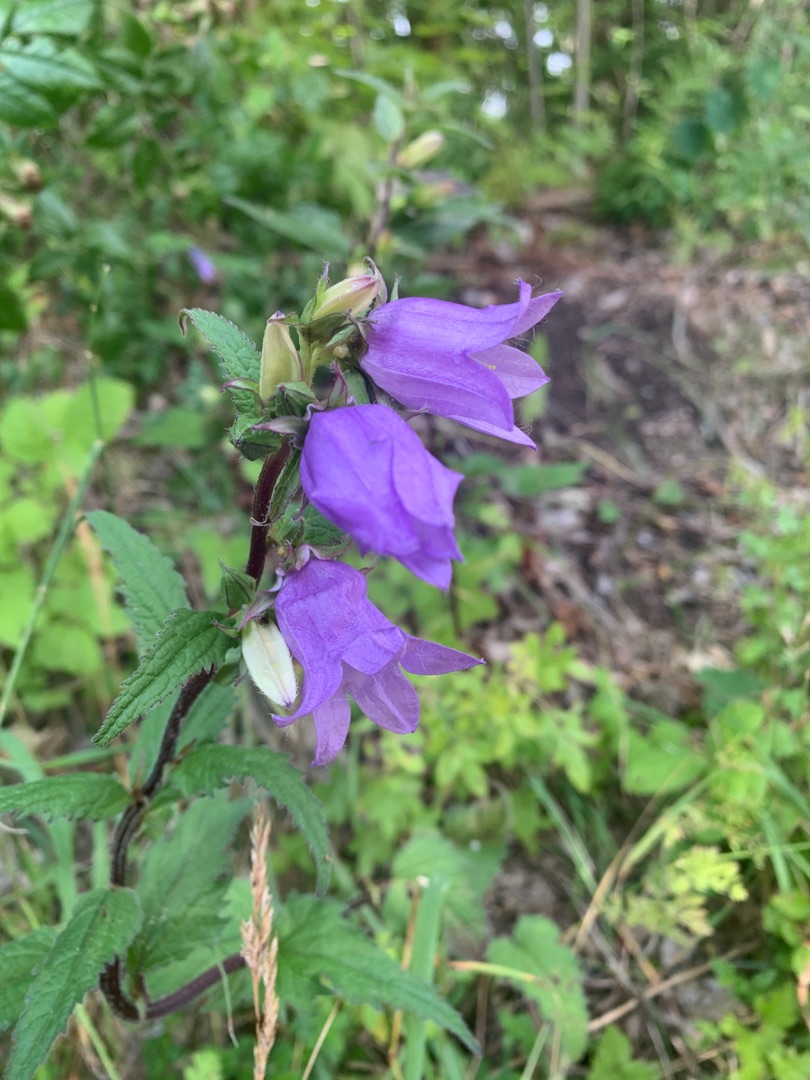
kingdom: Plantae
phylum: Tracheophyta
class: Magnoliopsida
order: Asterales
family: Campanulaceae
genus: Campanula
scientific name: Campanula trachelium
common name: Nælde-klokke
